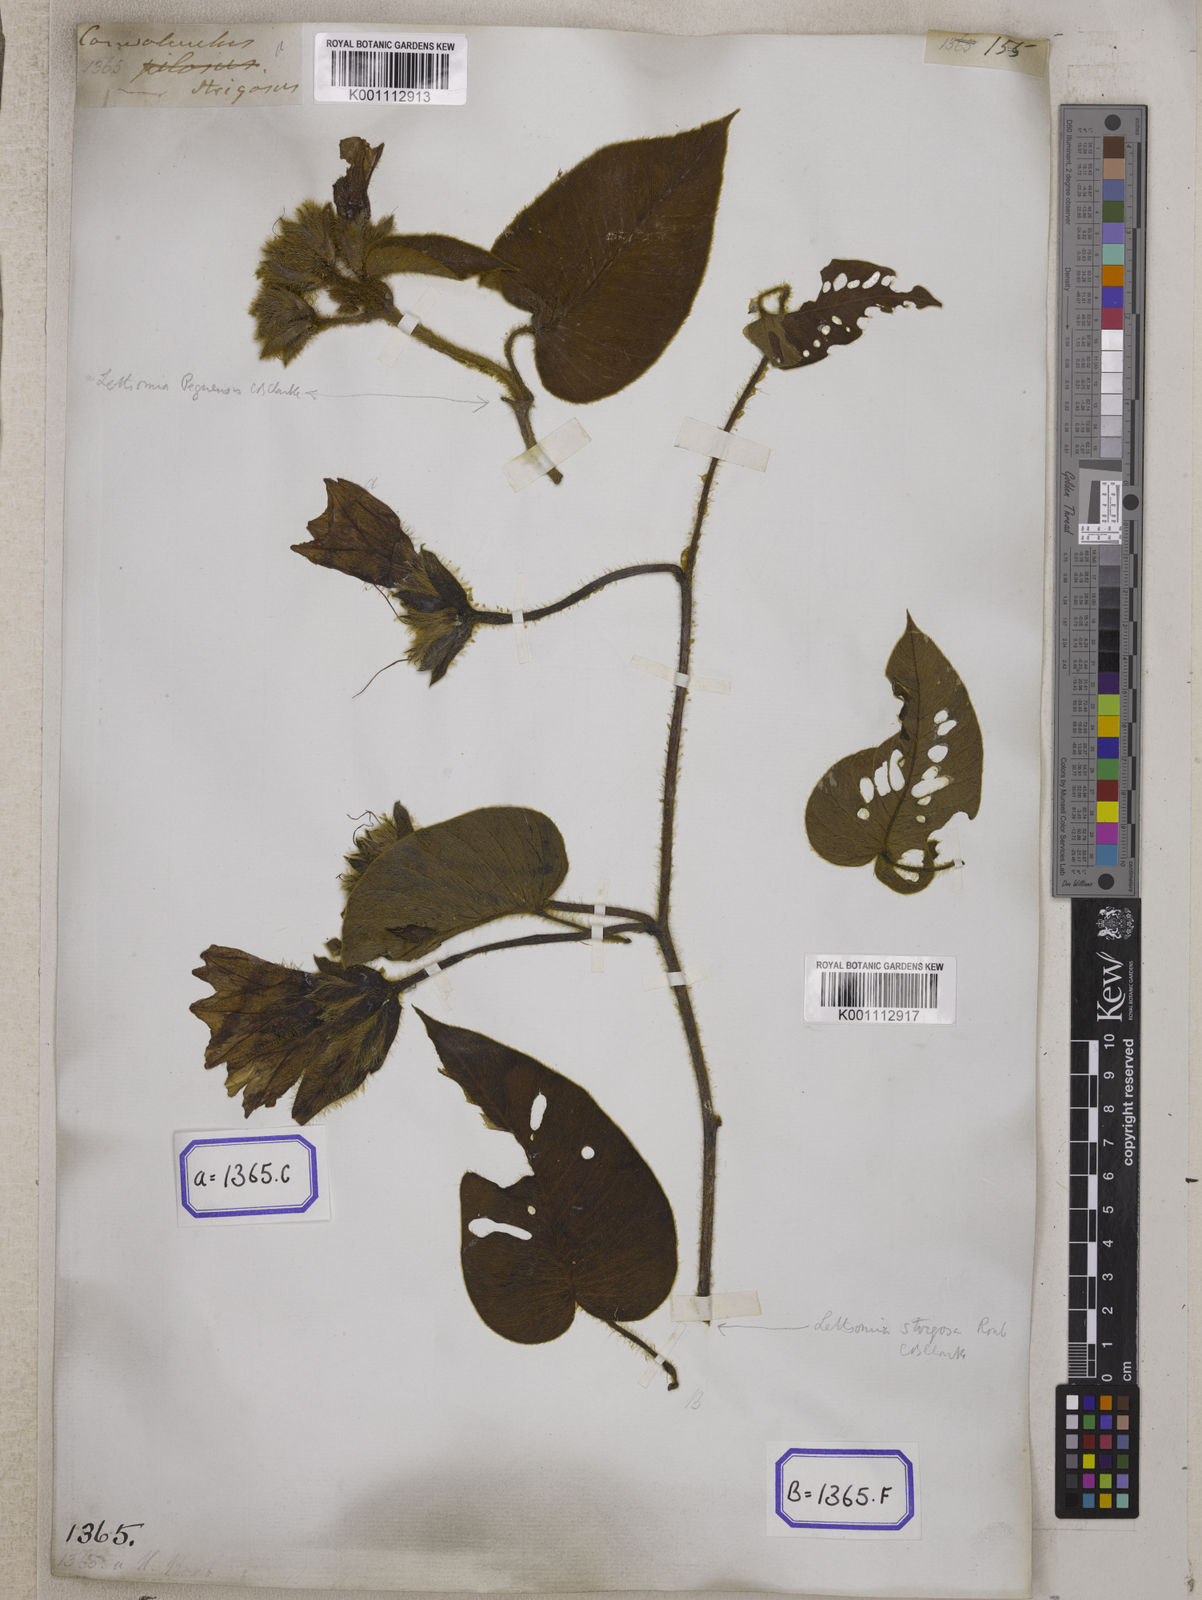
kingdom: Plantae
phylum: Tracheophyta
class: Magnoliopsida
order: Solanales
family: Convolvulaceae
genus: Convolvulus
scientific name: Convolvulus
